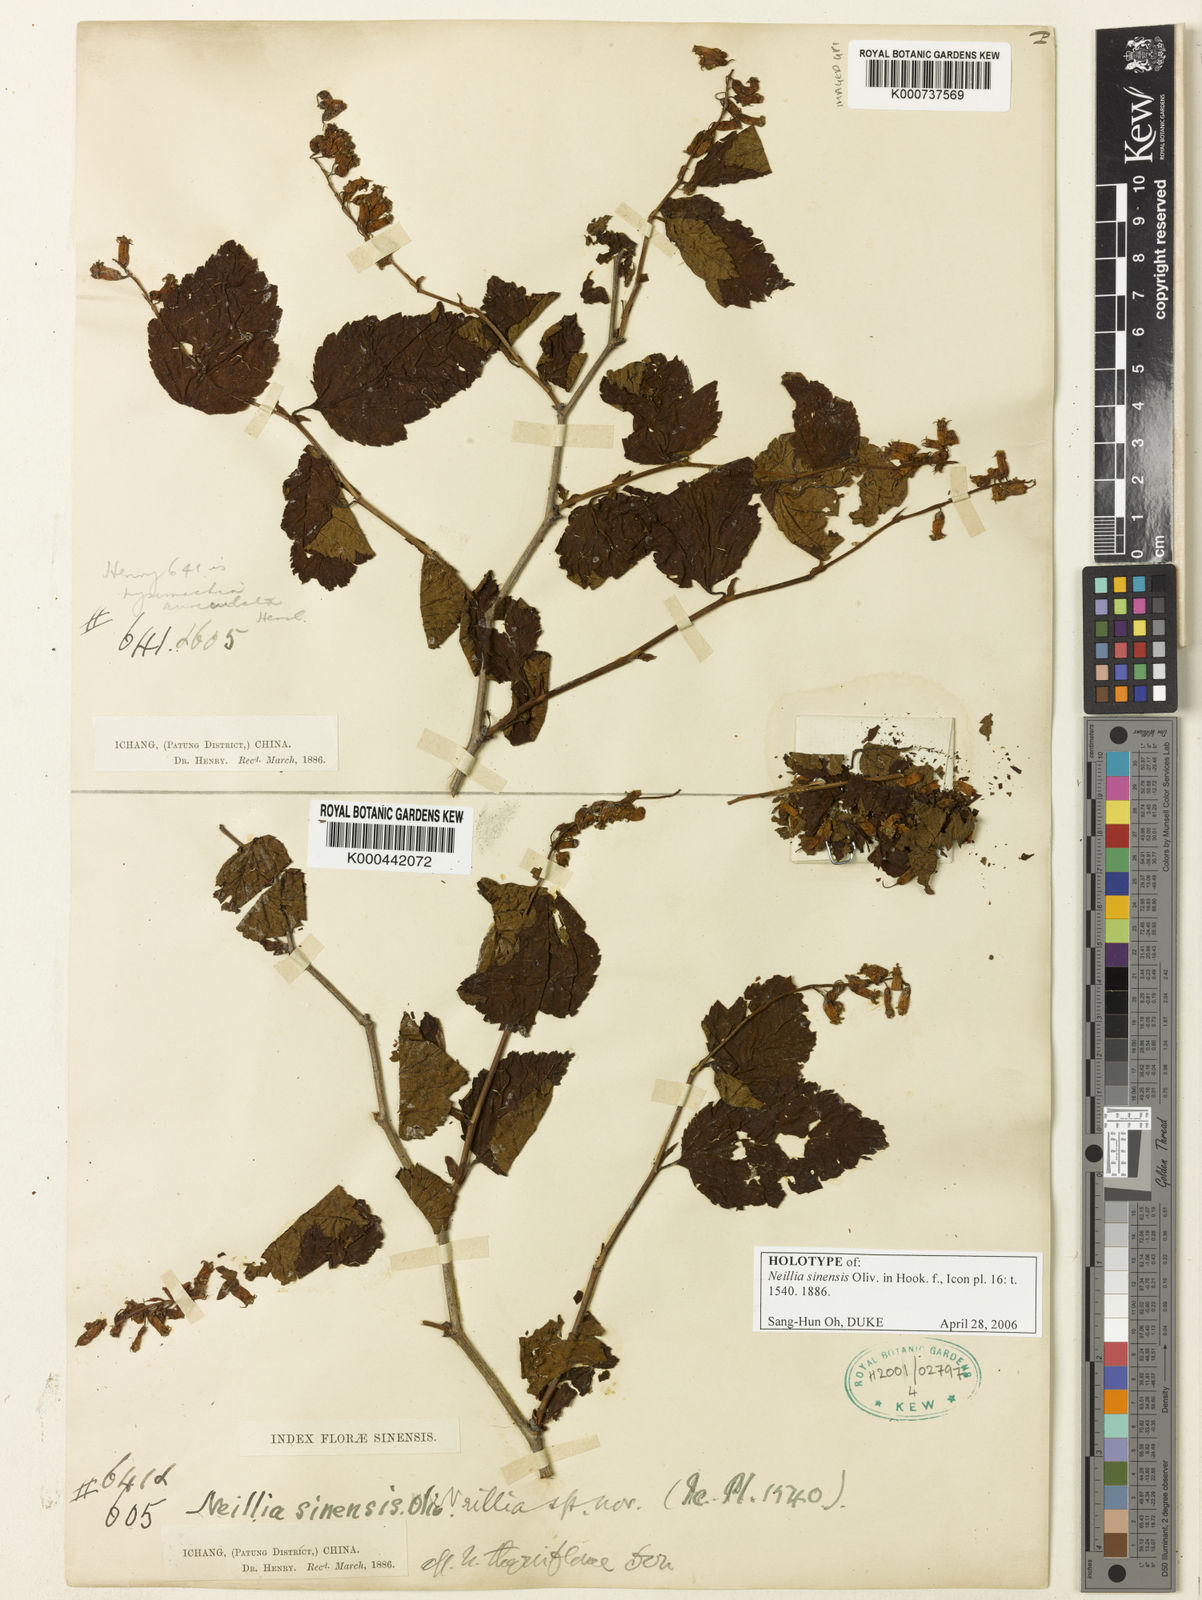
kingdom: Plantae
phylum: Tracheophyta
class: Magnoliopsida
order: Rosales
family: Rosaceae
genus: Neillia
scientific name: Neillia sinensis
